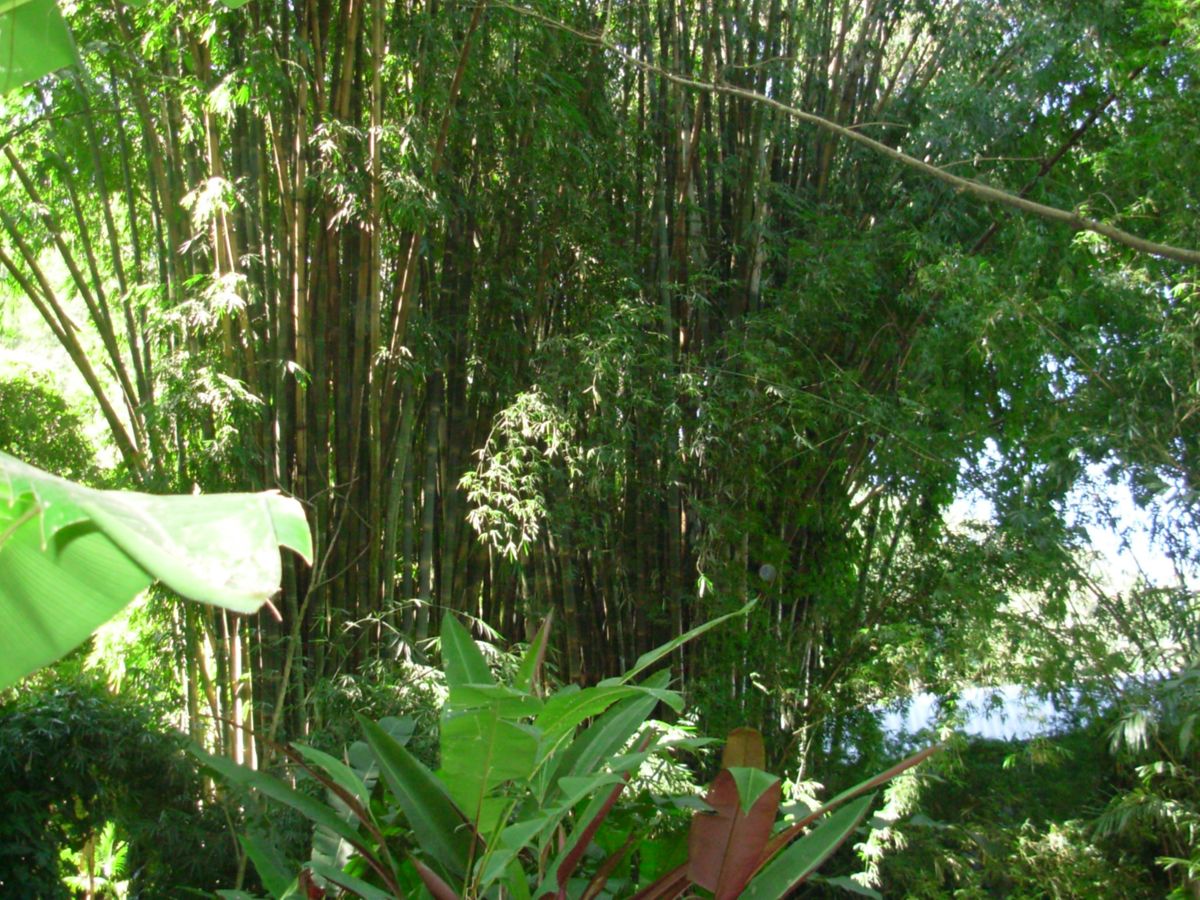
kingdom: Plantae
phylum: Tracheophyta
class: Liliopsida
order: Poales
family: Poaceae
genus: Dendrocalamus
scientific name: Dendrocalamus giganteus
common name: Giant bamboo
